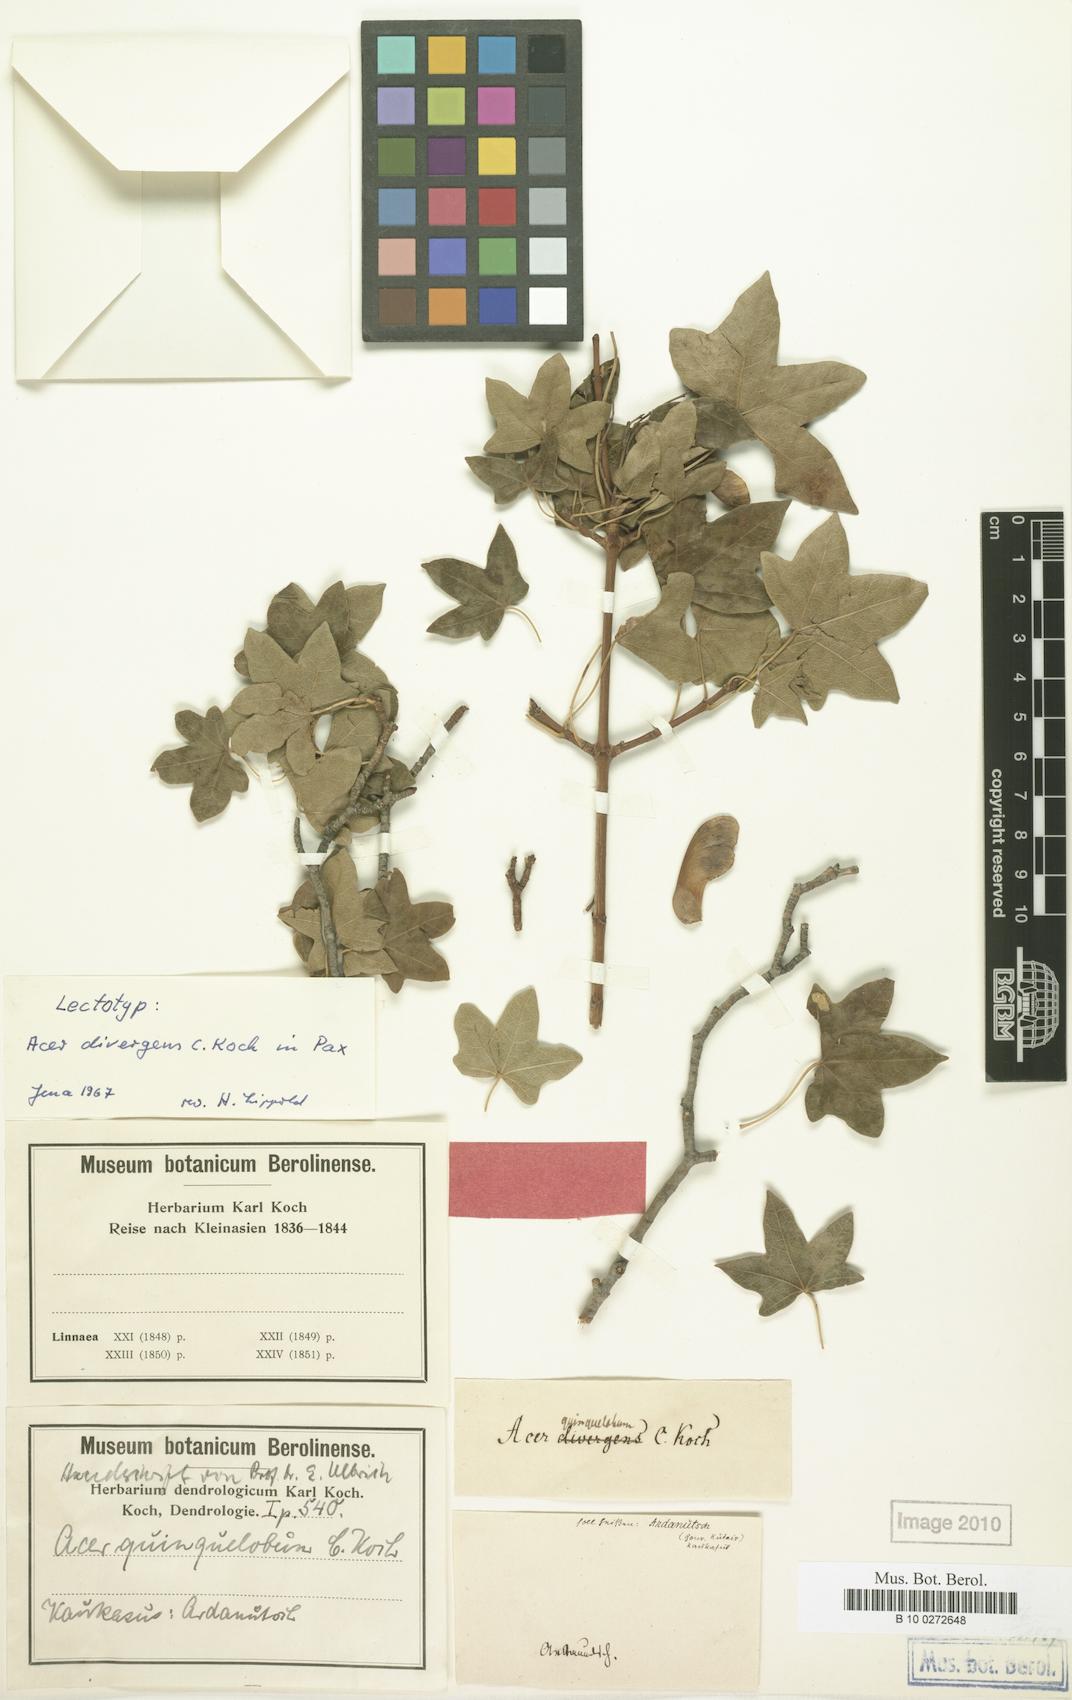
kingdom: Plantae
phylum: Tracheophyta
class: Magnoliopsida
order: Sapindales
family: Sapindaceae
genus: Acer
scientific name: Acer cappadocicum
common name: Cappadocian maple
